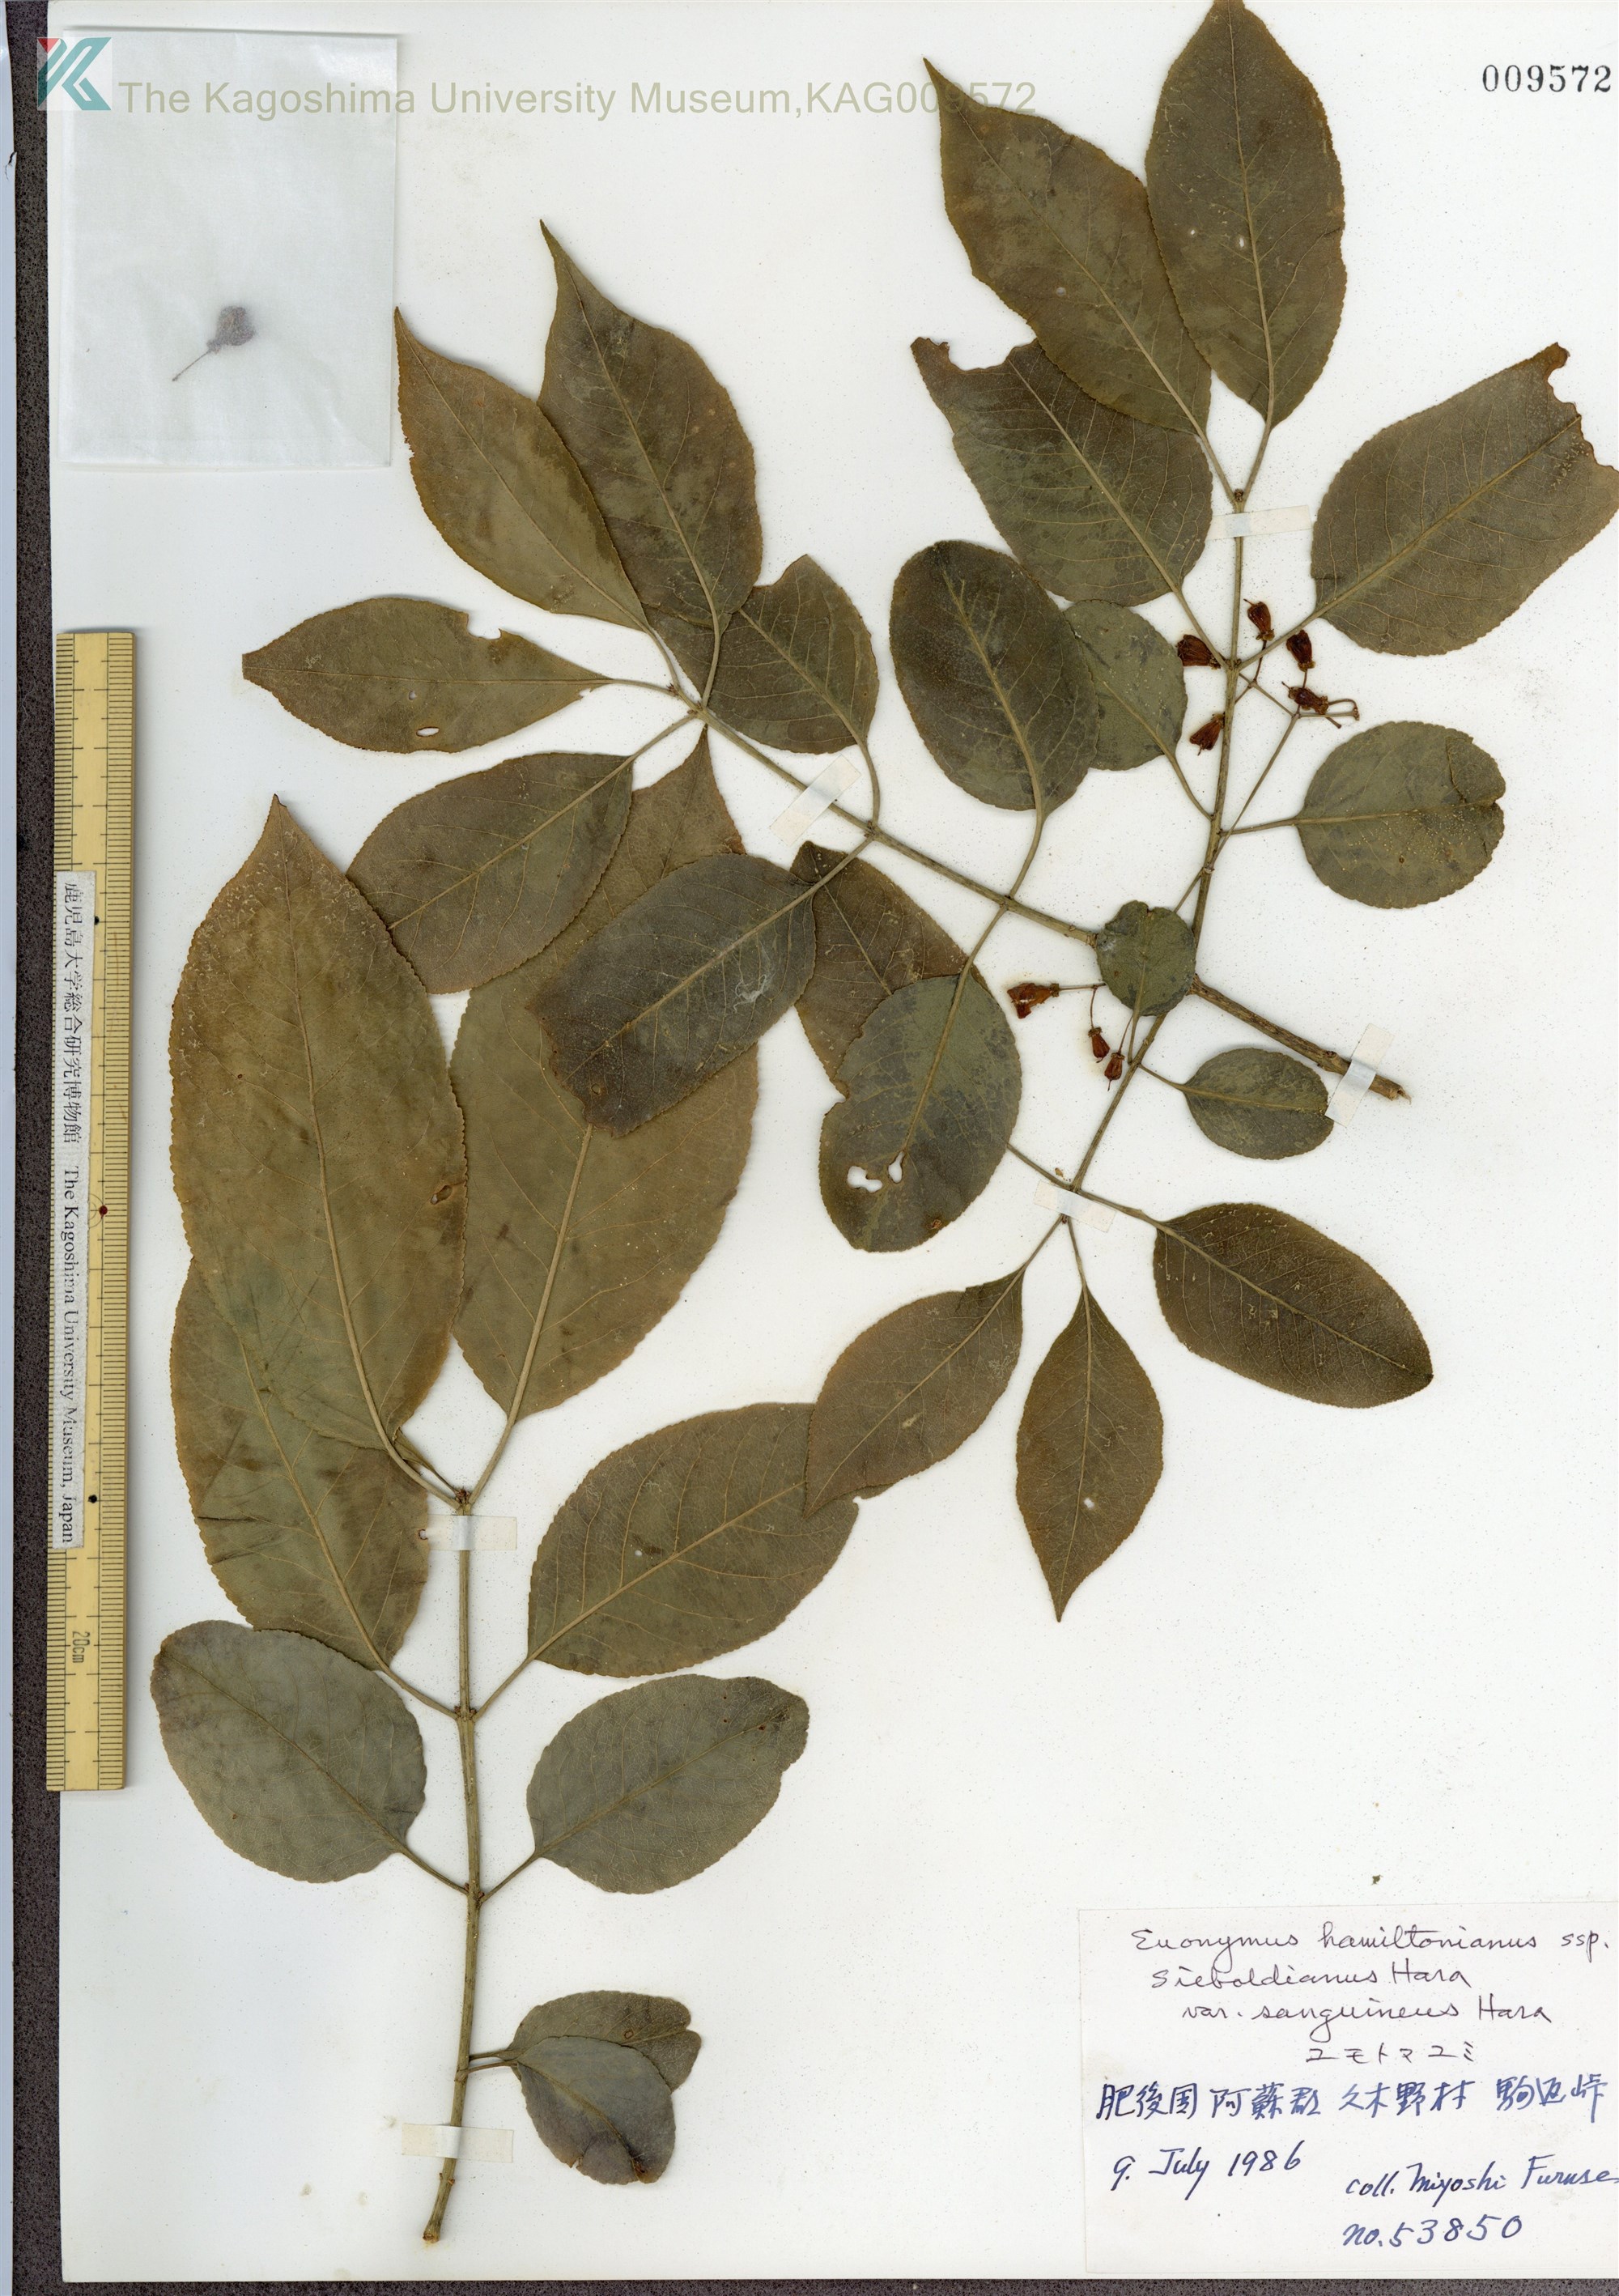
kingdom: Plantae
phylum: Tracheophyta
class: Magnoliopsida
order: Celastrales
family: Celastraceae
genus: Euonymus
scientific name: Euonymus hamiltonianus
